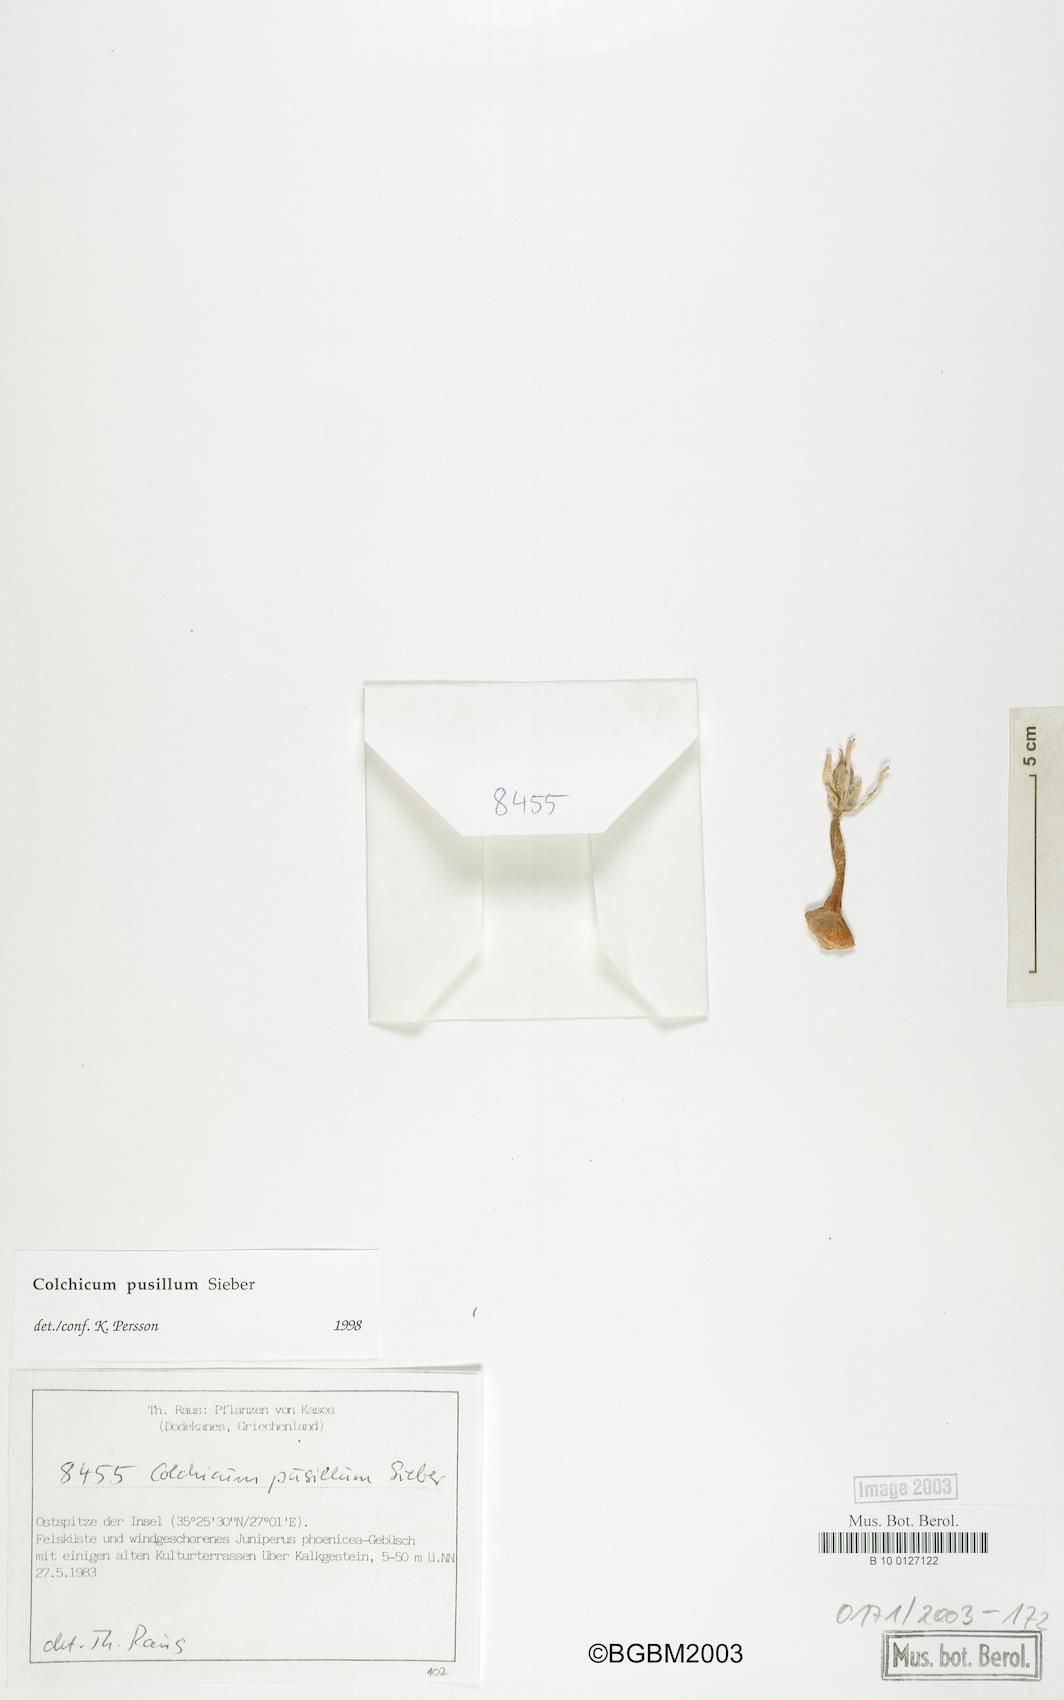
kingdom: Plantae
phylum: Tracheophyta
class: Liliopsida
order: Liliales
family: Colchicaceae
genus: Colchicum
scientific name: Colchicum pusillum
